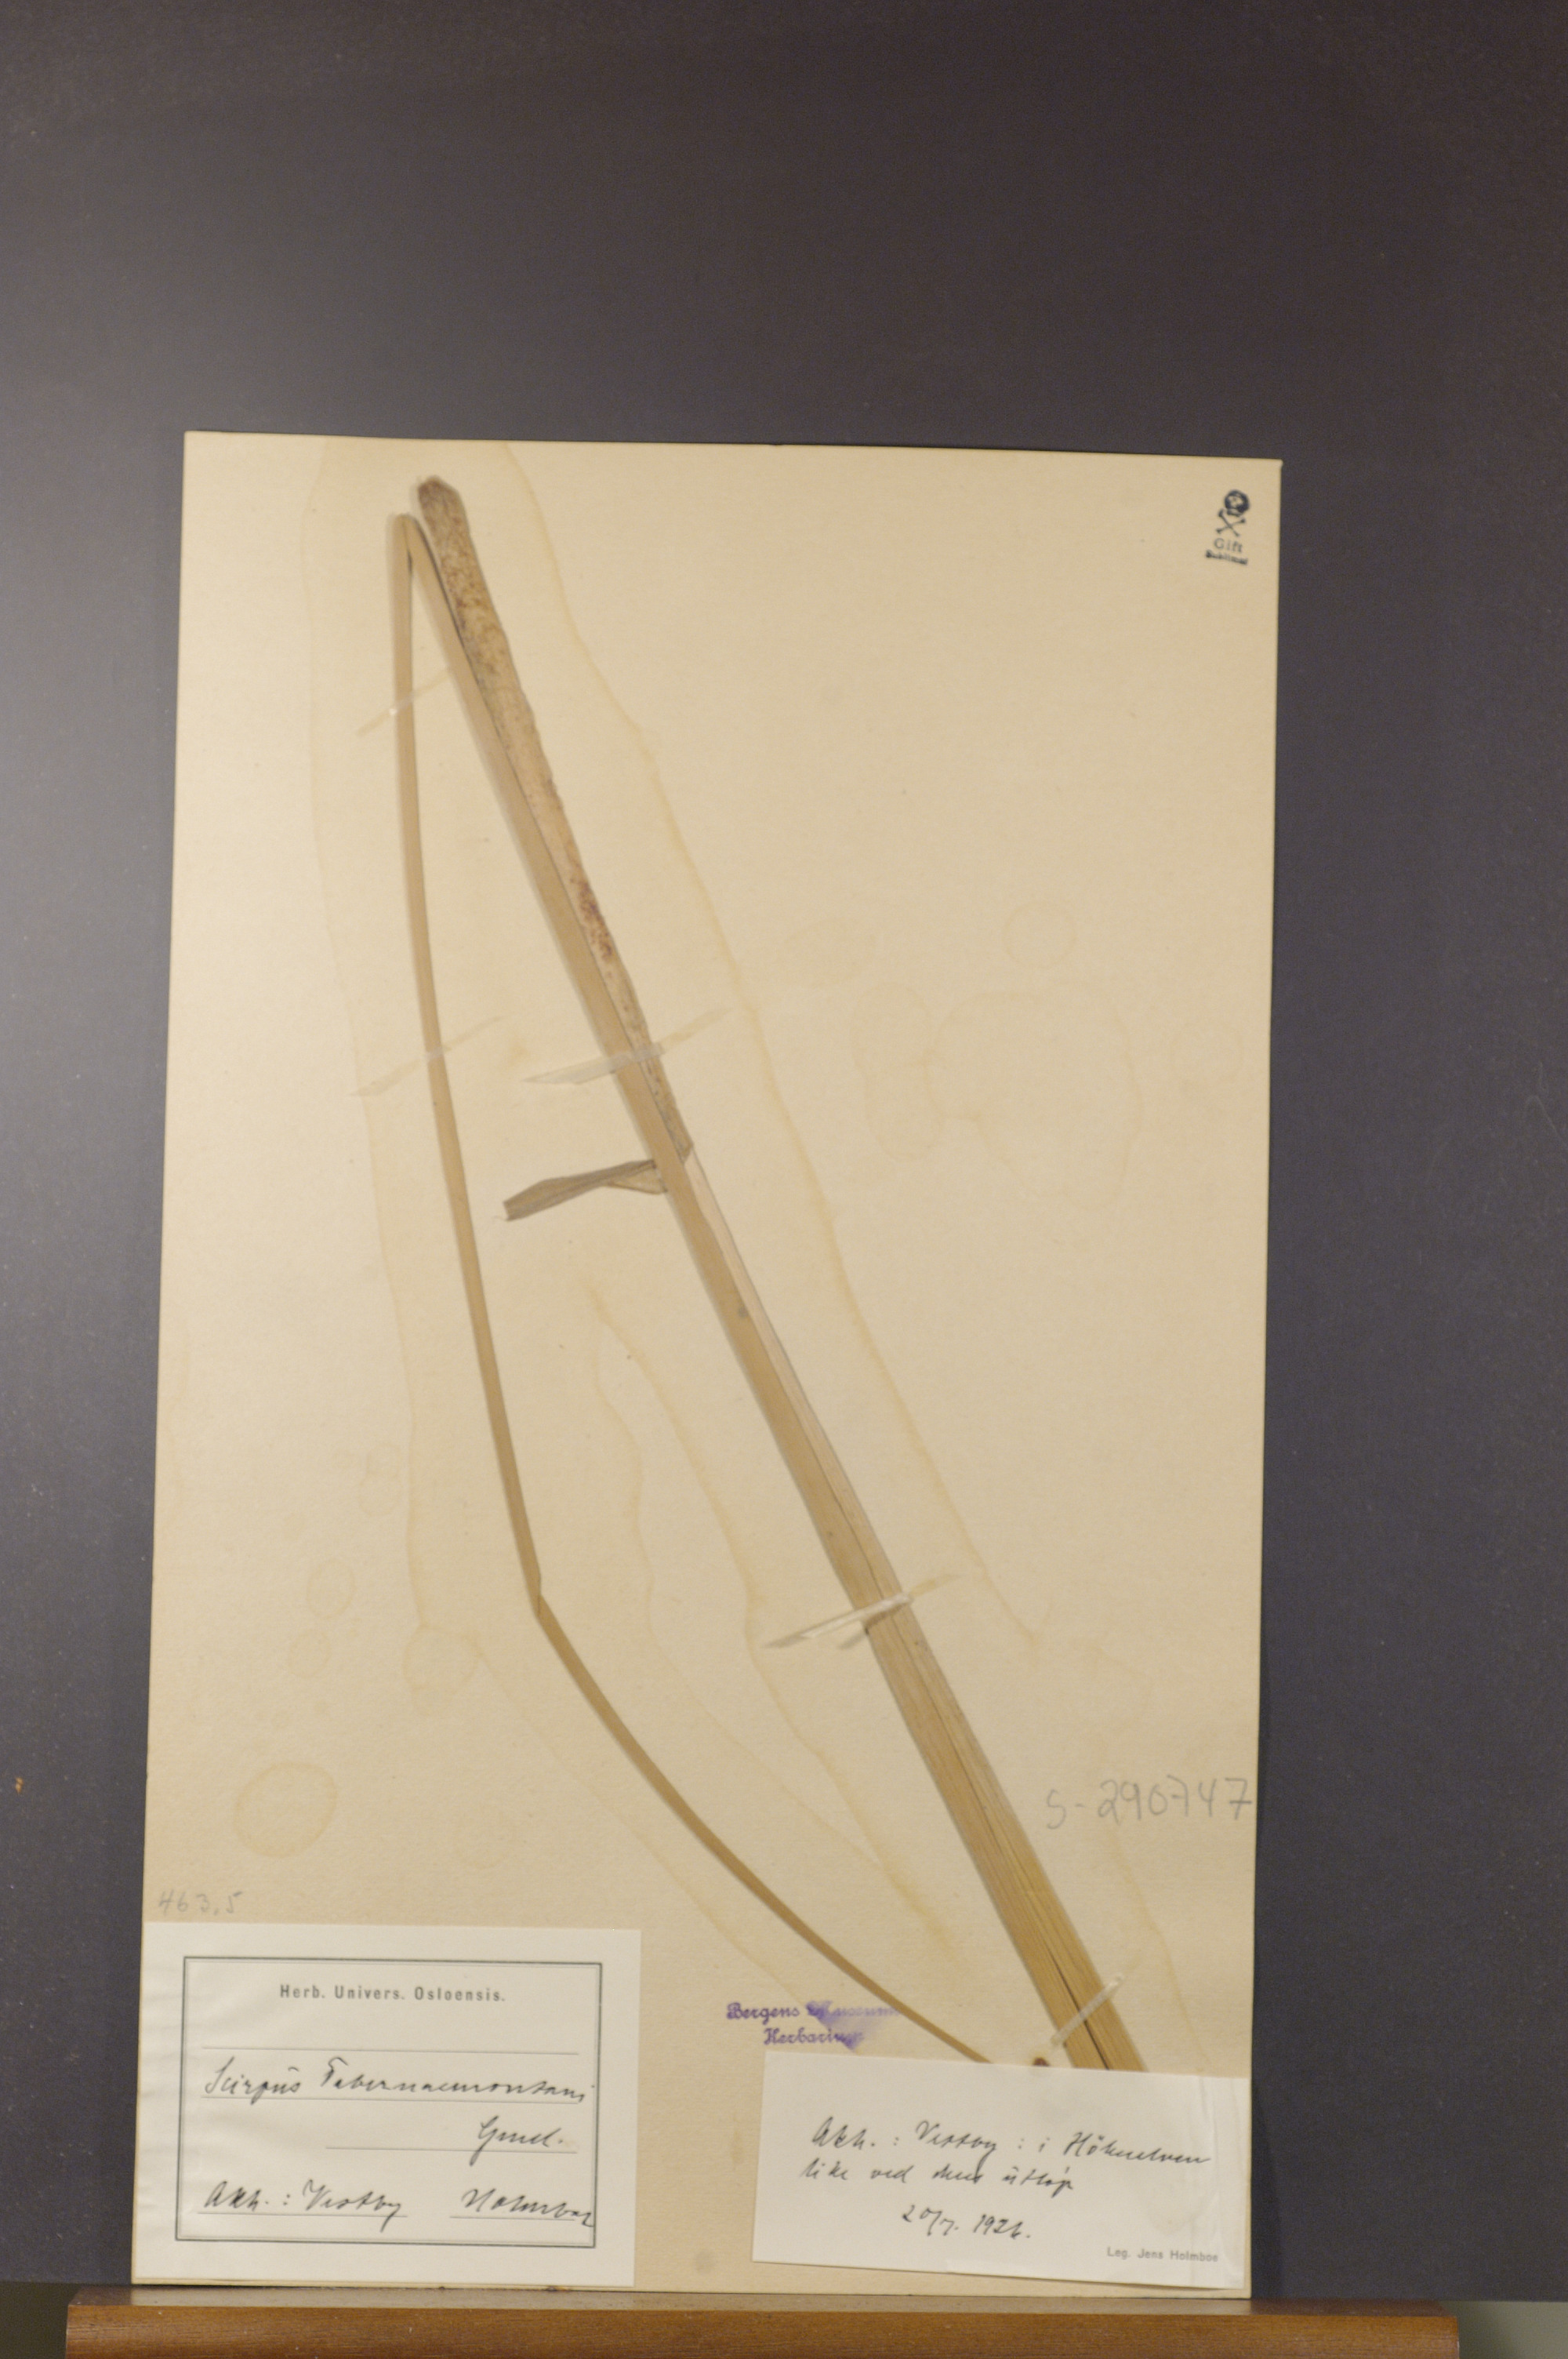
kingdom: Plantae
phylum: Tracheophyta
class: Liliopsida
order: Poales
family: Cyperaceae
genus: Schoenoplectus
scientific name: Schoenoplectus tabernaemontani
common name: Grey club-rush
